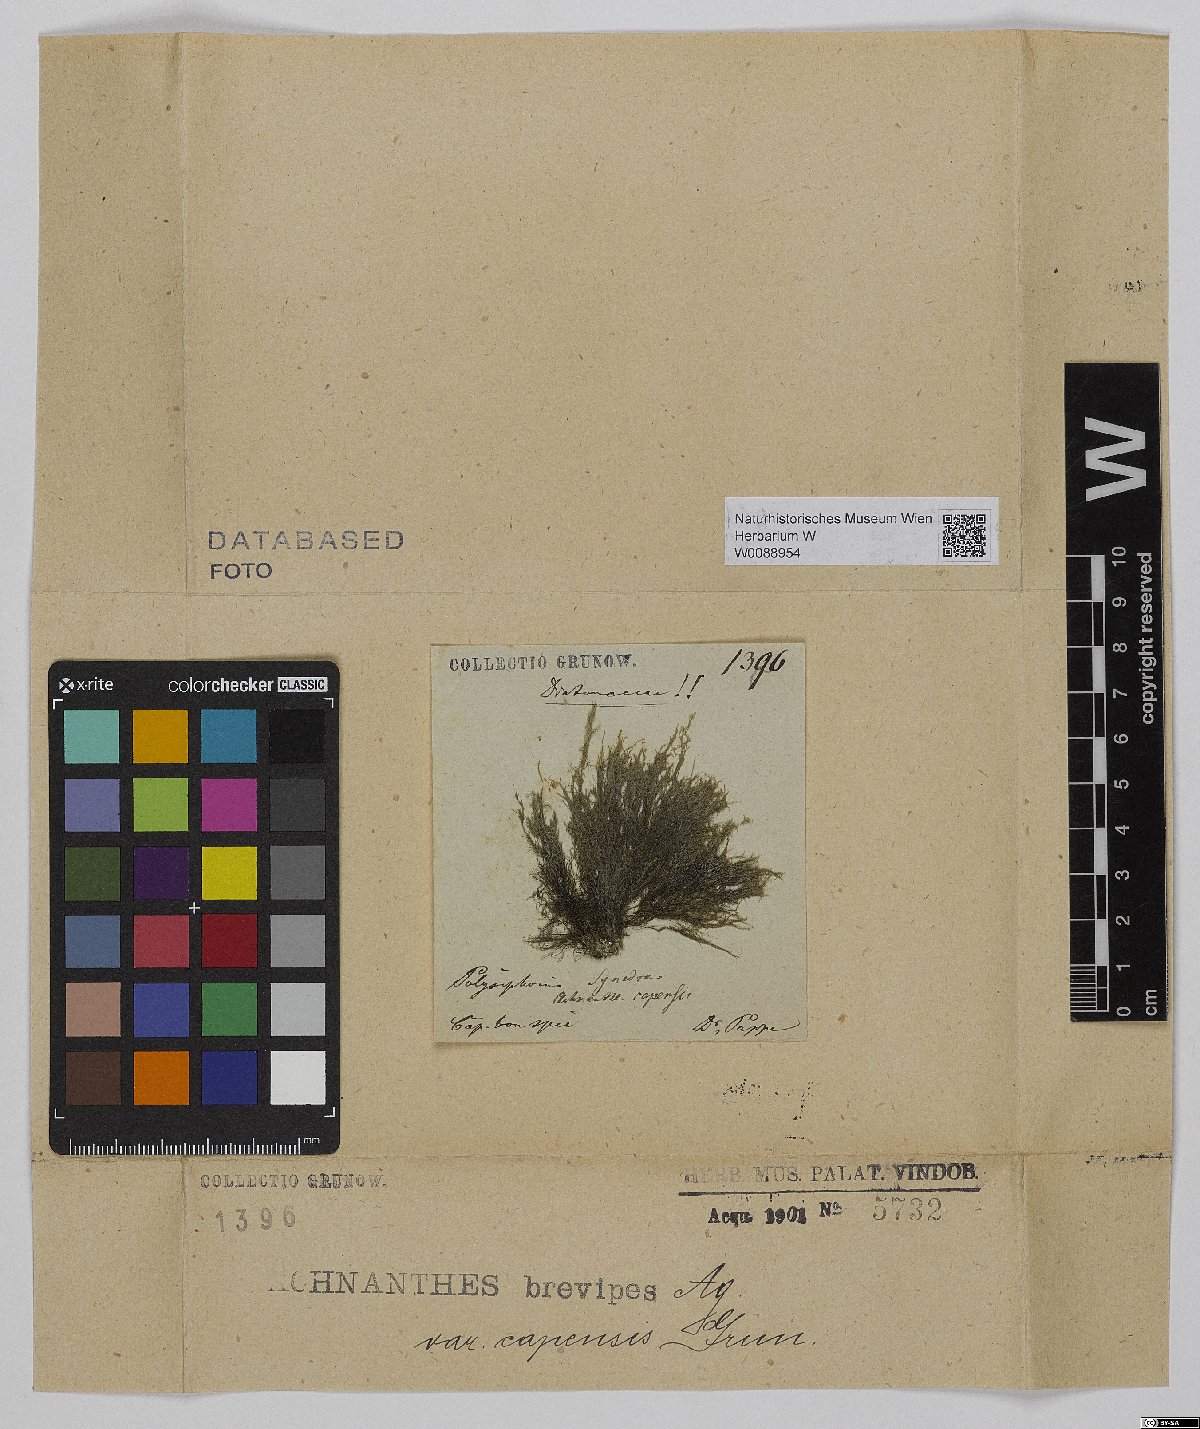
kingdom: Chromista
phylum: Ochrophyta
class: Bacillariophyceae
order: Achnanthales
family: Achnanthaceae
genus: Achnanthes
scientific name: Achnanthes capensis
